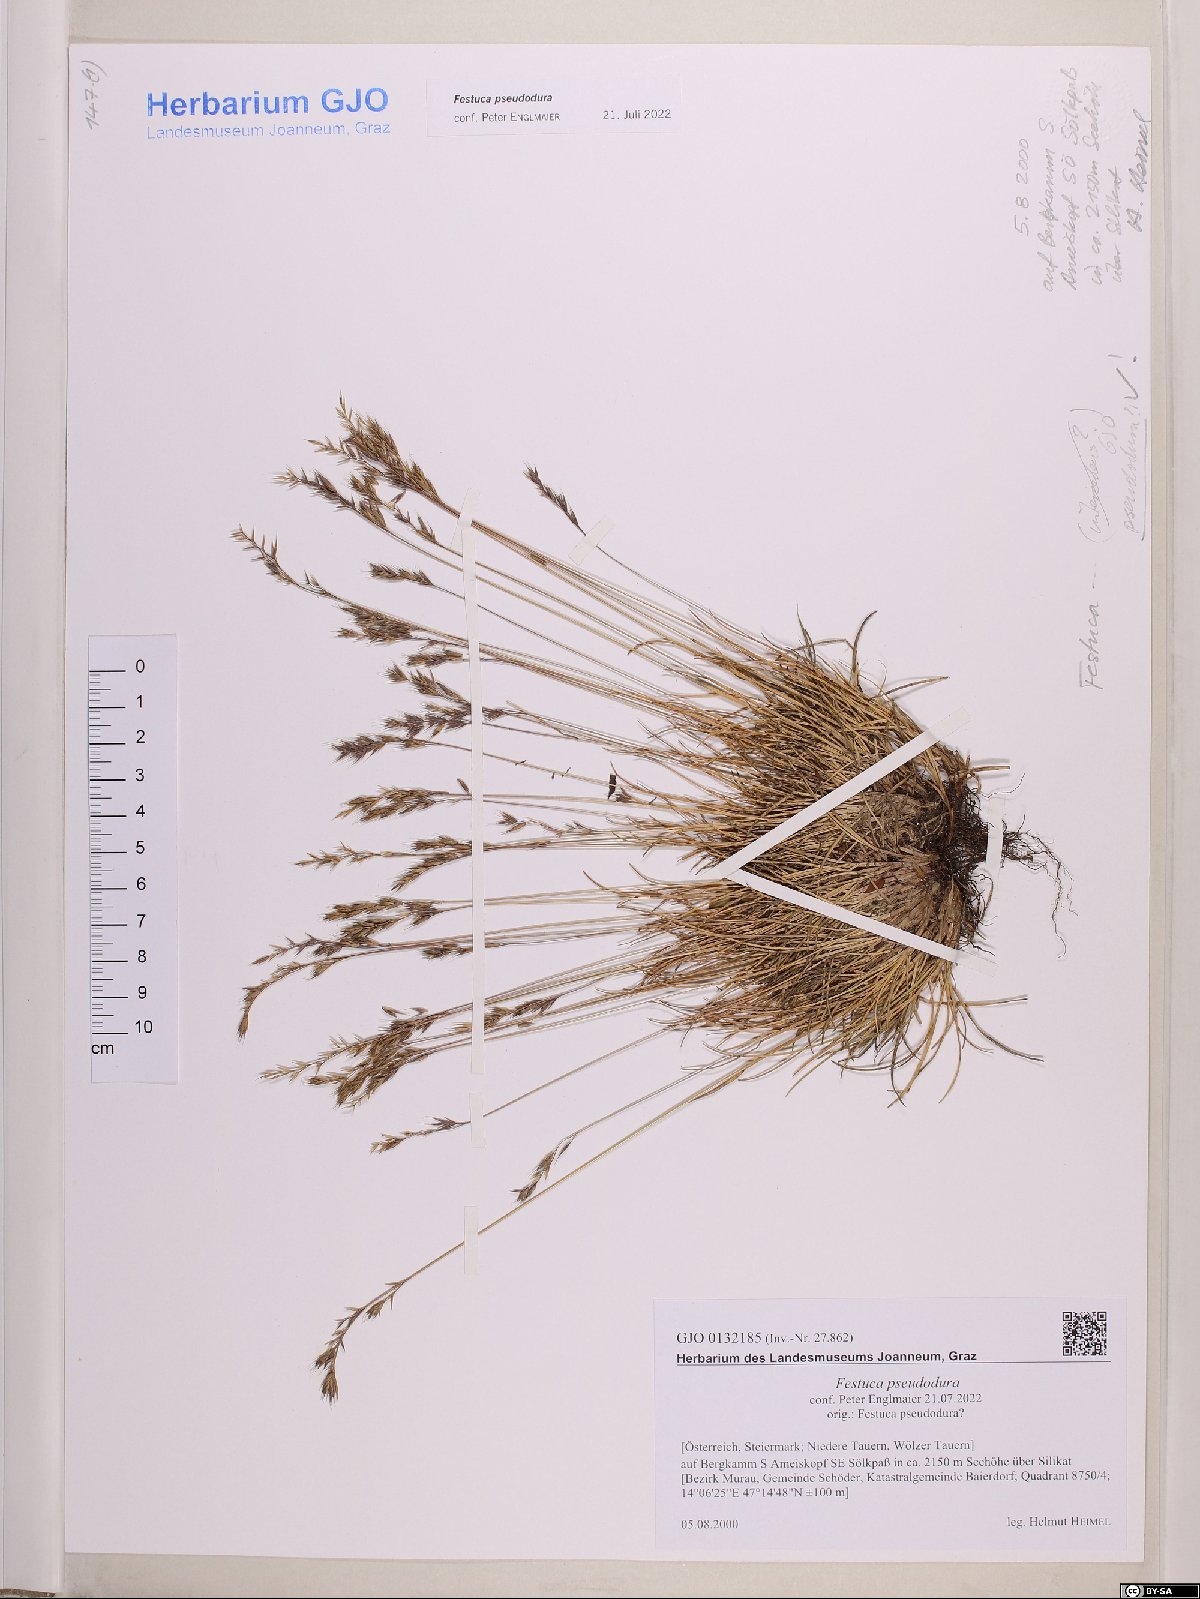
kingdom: Plantae
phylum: Tracheophyta
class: Liliopsida
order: Poales
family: Poaceae
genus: Festuca
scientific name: Festuca pseudodura
